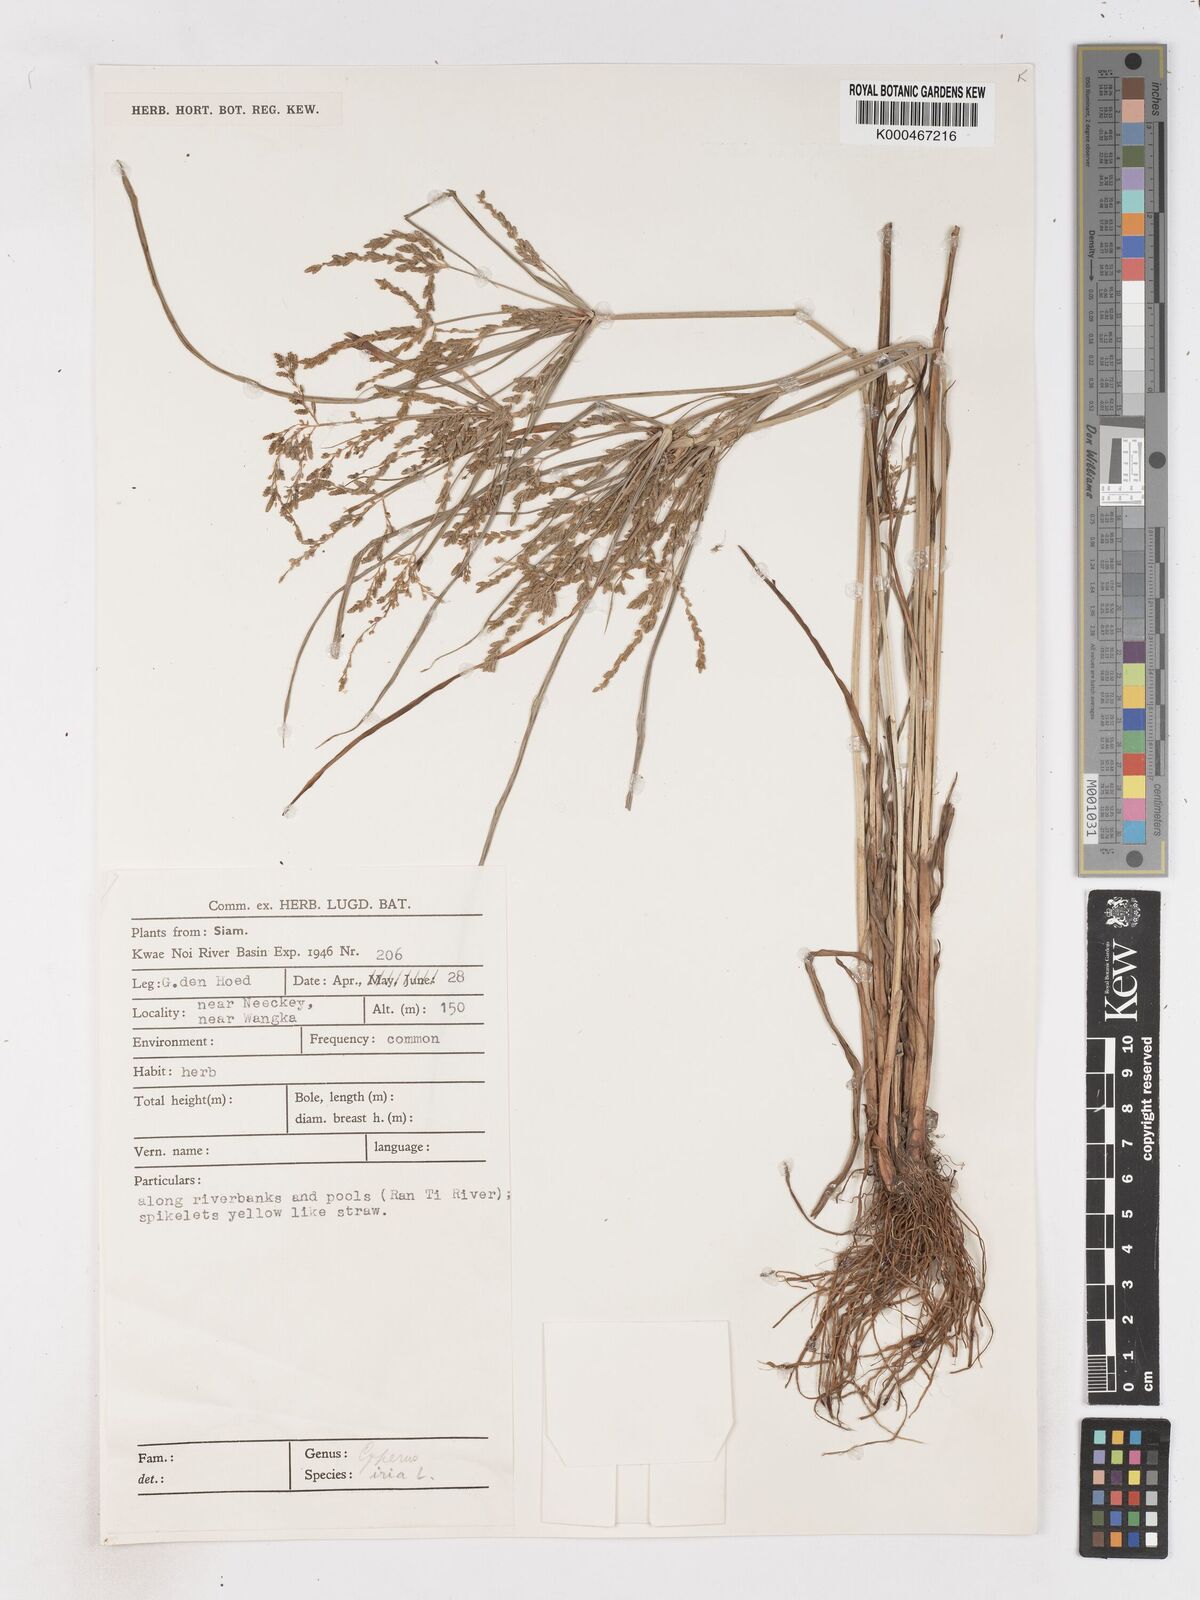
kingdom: Plantae
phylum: Tracheophyta
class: Liliopsida
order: Poales
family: Cyperaceae
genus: Cyperus
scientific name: Cyperus iria
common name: Ricefield flatsedge
